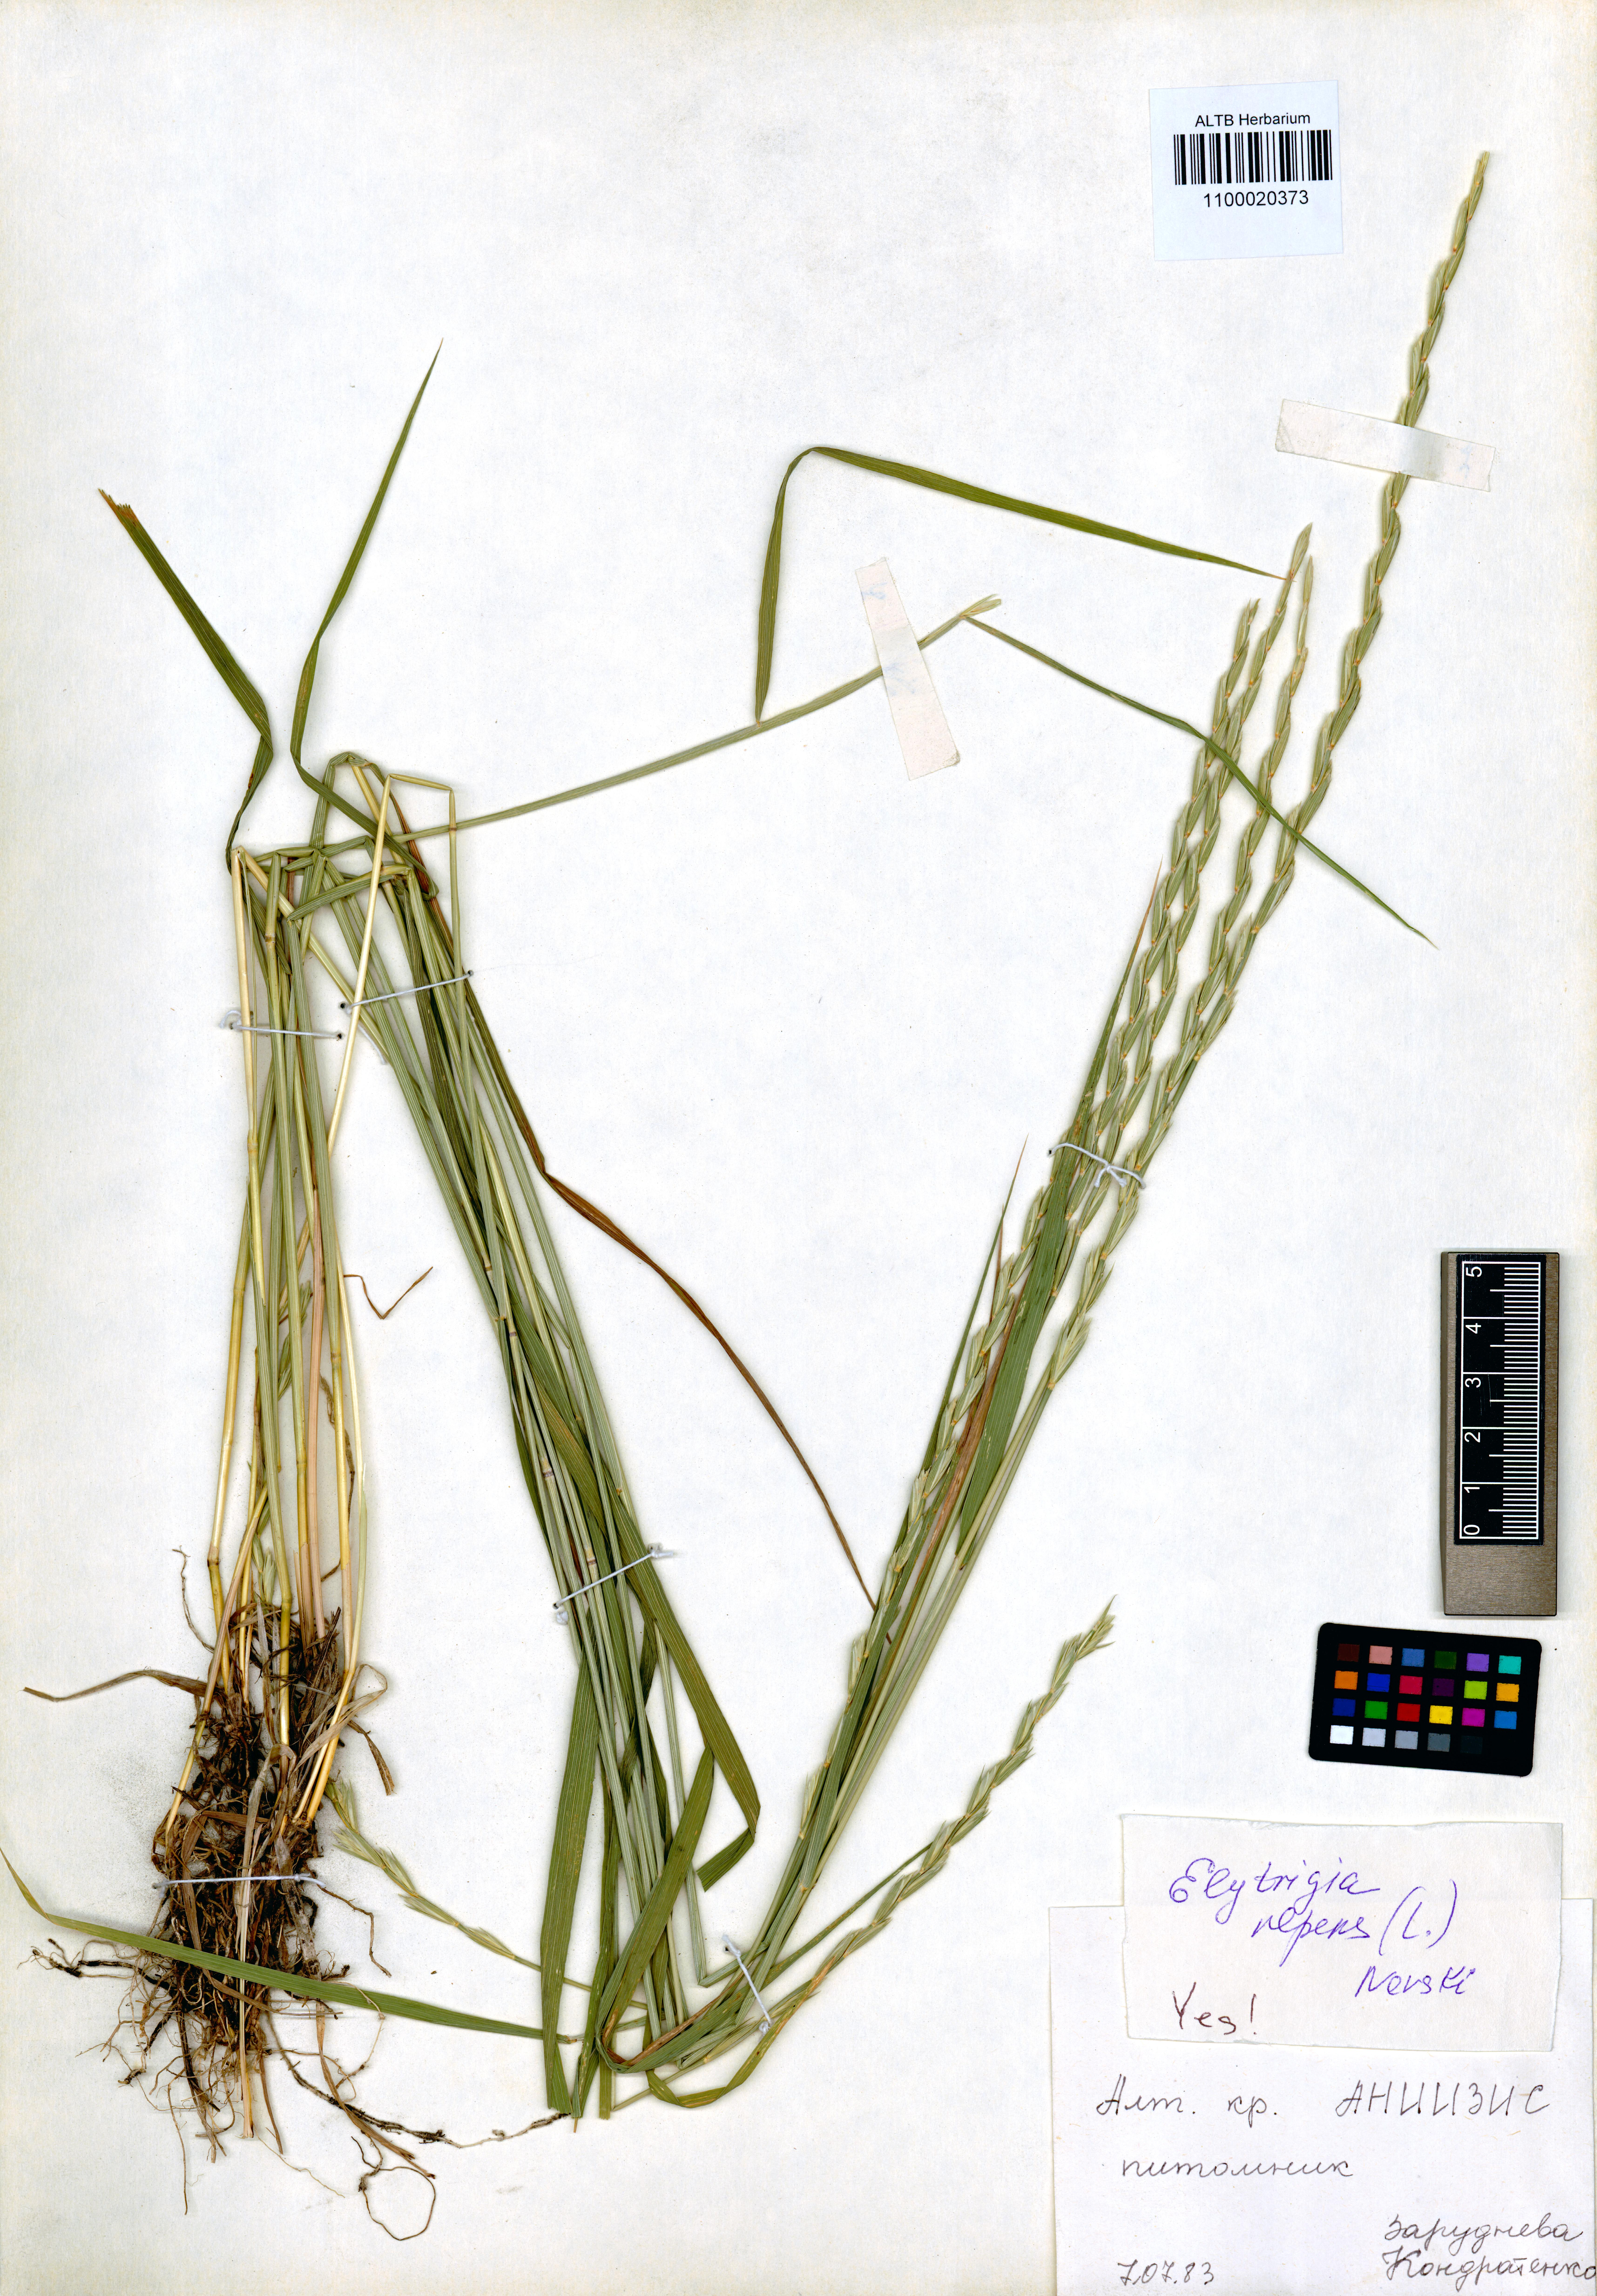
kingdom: Plantae
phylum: Tracheophyta
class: Liliopsida
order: Poales
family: Poaceae
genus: Elymus
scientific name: Elymus repens
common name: Quackgrass
